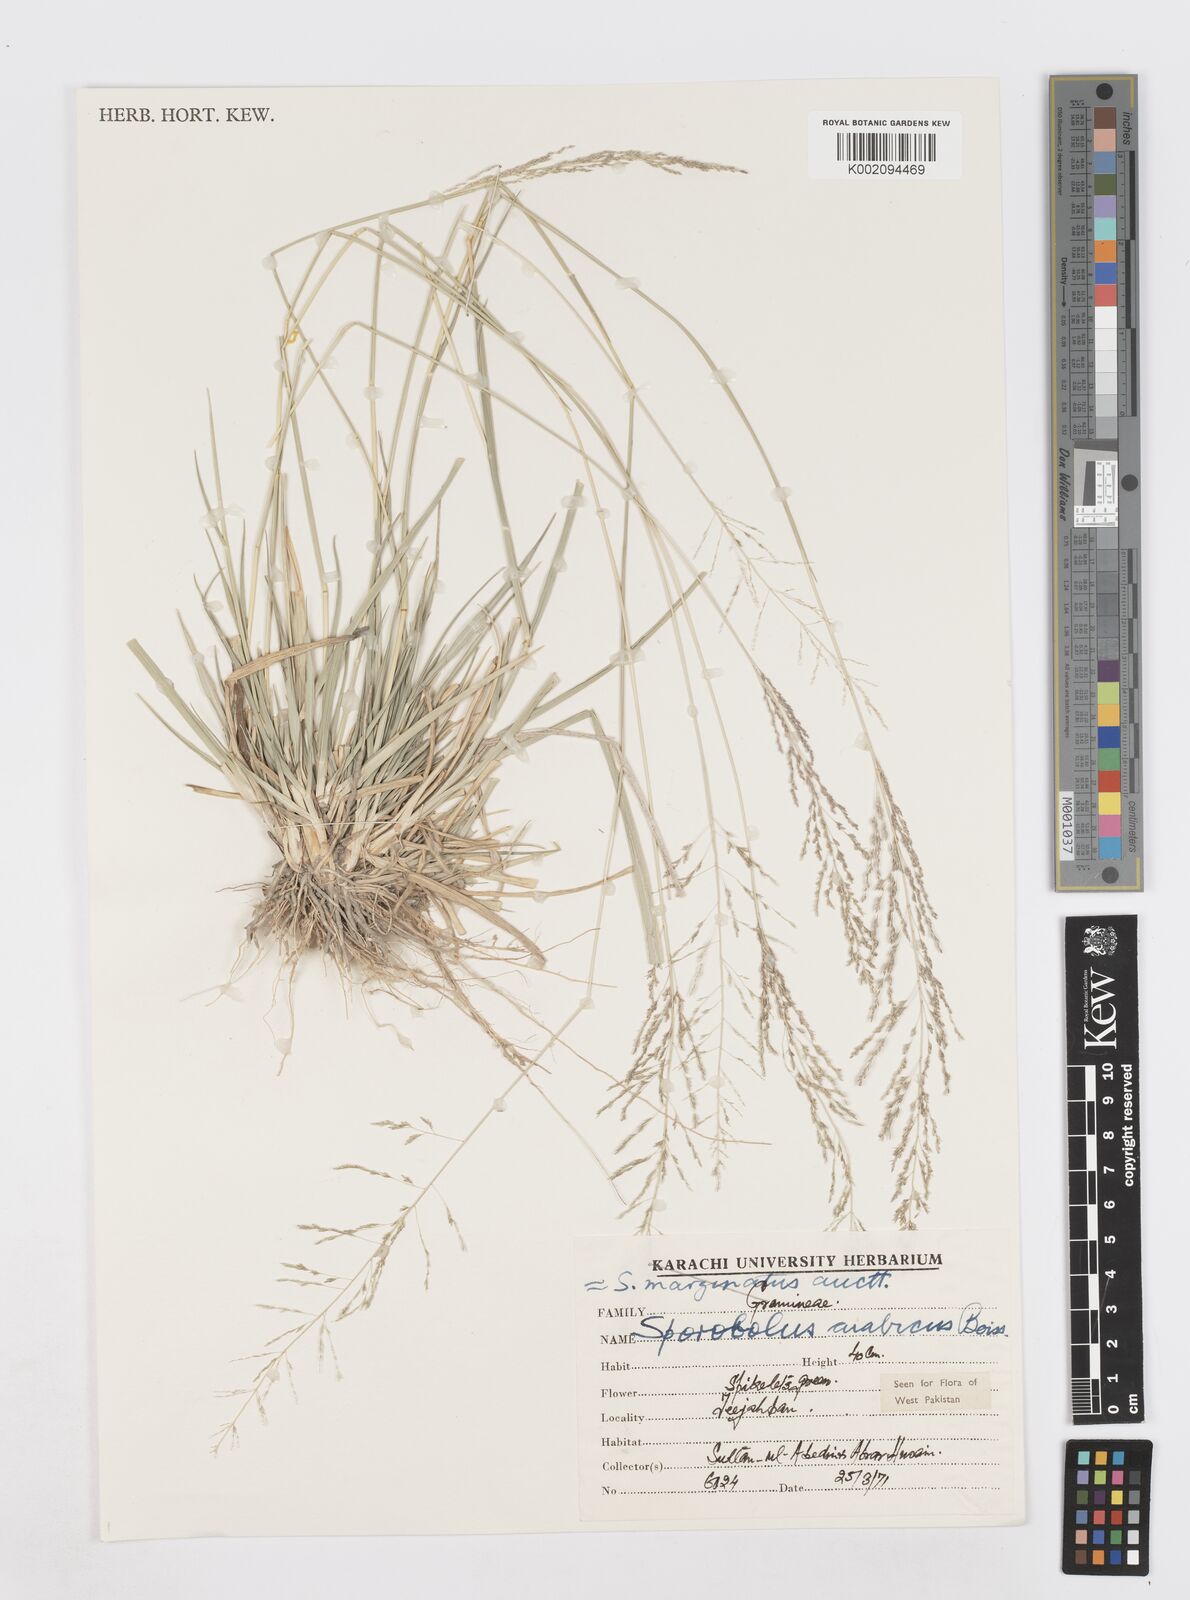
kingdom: Plantae
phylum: Tracheophyta
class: Liliopsida
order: Poales
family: Poaceae
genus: Sporobolus
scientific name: Sporobolus ioclados
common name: Pan dropseed
